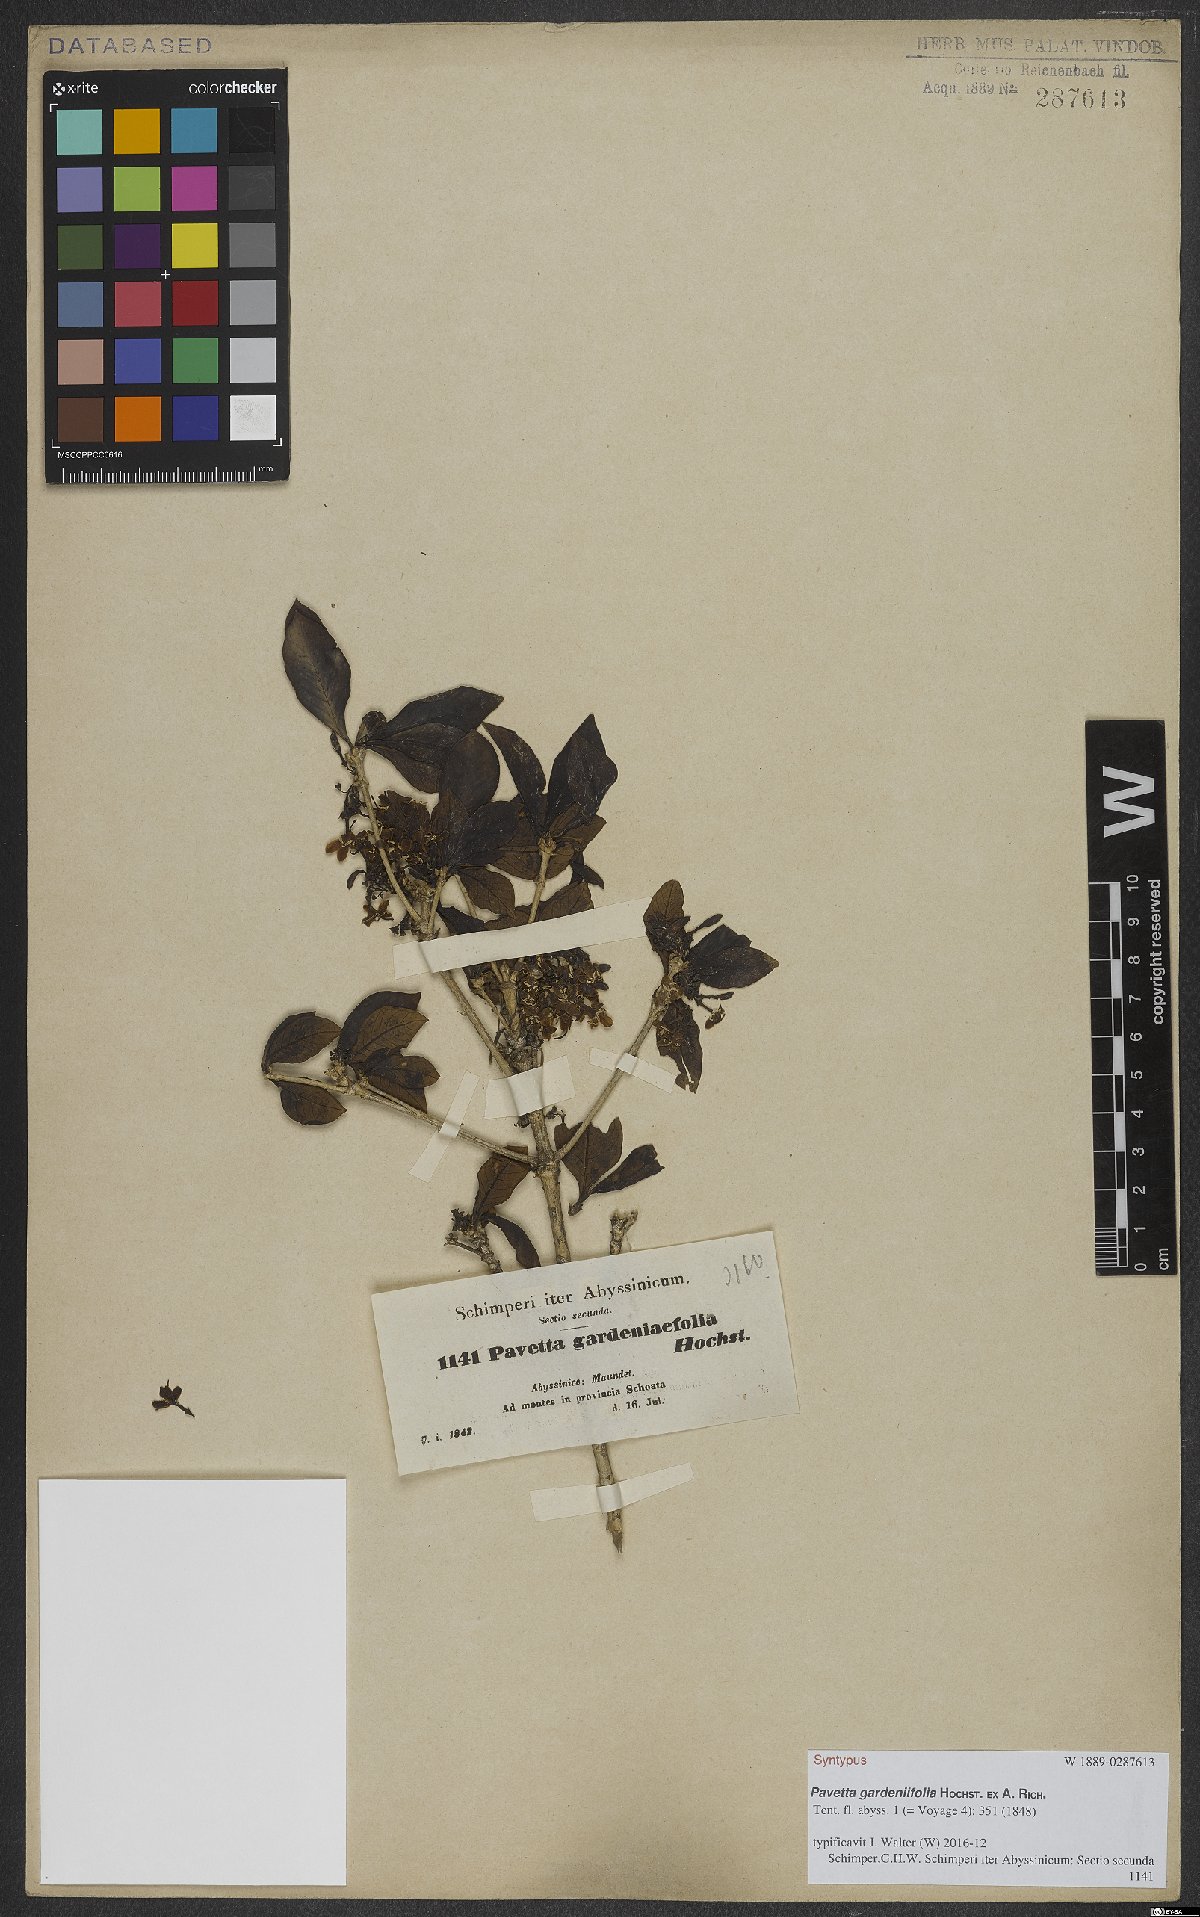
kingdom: Plantae
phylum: Tracheophyta
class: Magnoliopsida
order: Gentianales
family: Rubiaceae
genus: Pavetta
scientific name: Pavetta gardeniifolia
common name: Common brides-bush
